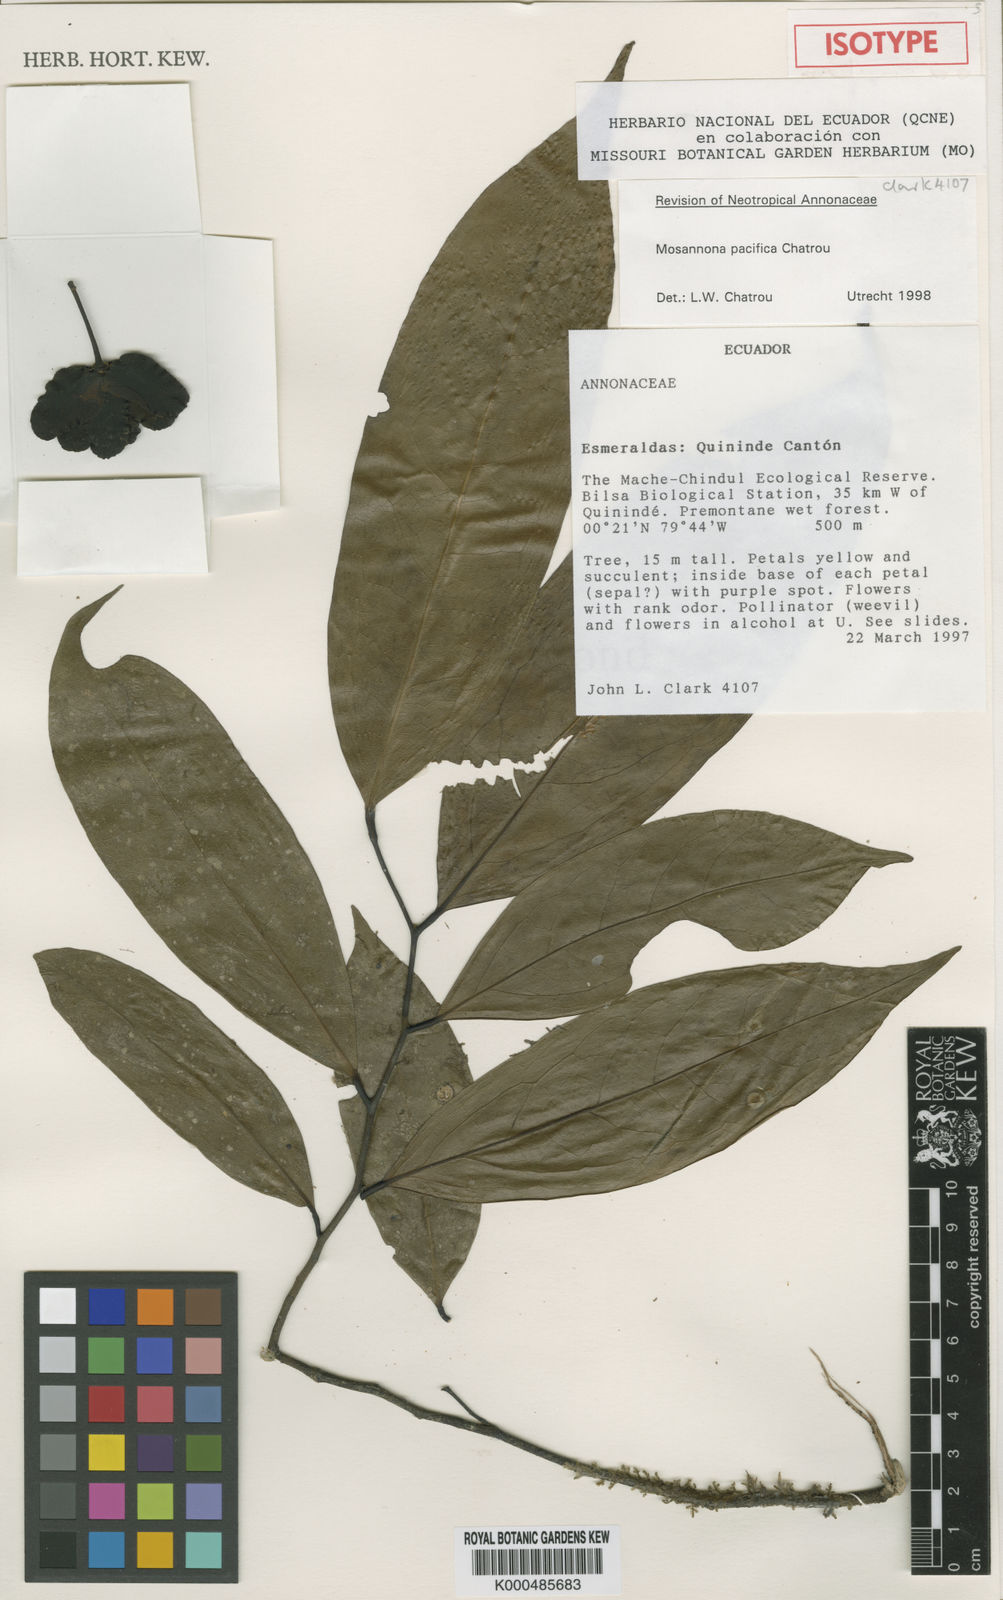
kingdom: Plantae
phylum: Tracheophyta
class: Magnoliopsida
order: Magnoliales
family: Annonaceae
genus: Mosannona
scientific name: Mosannona pacifica
